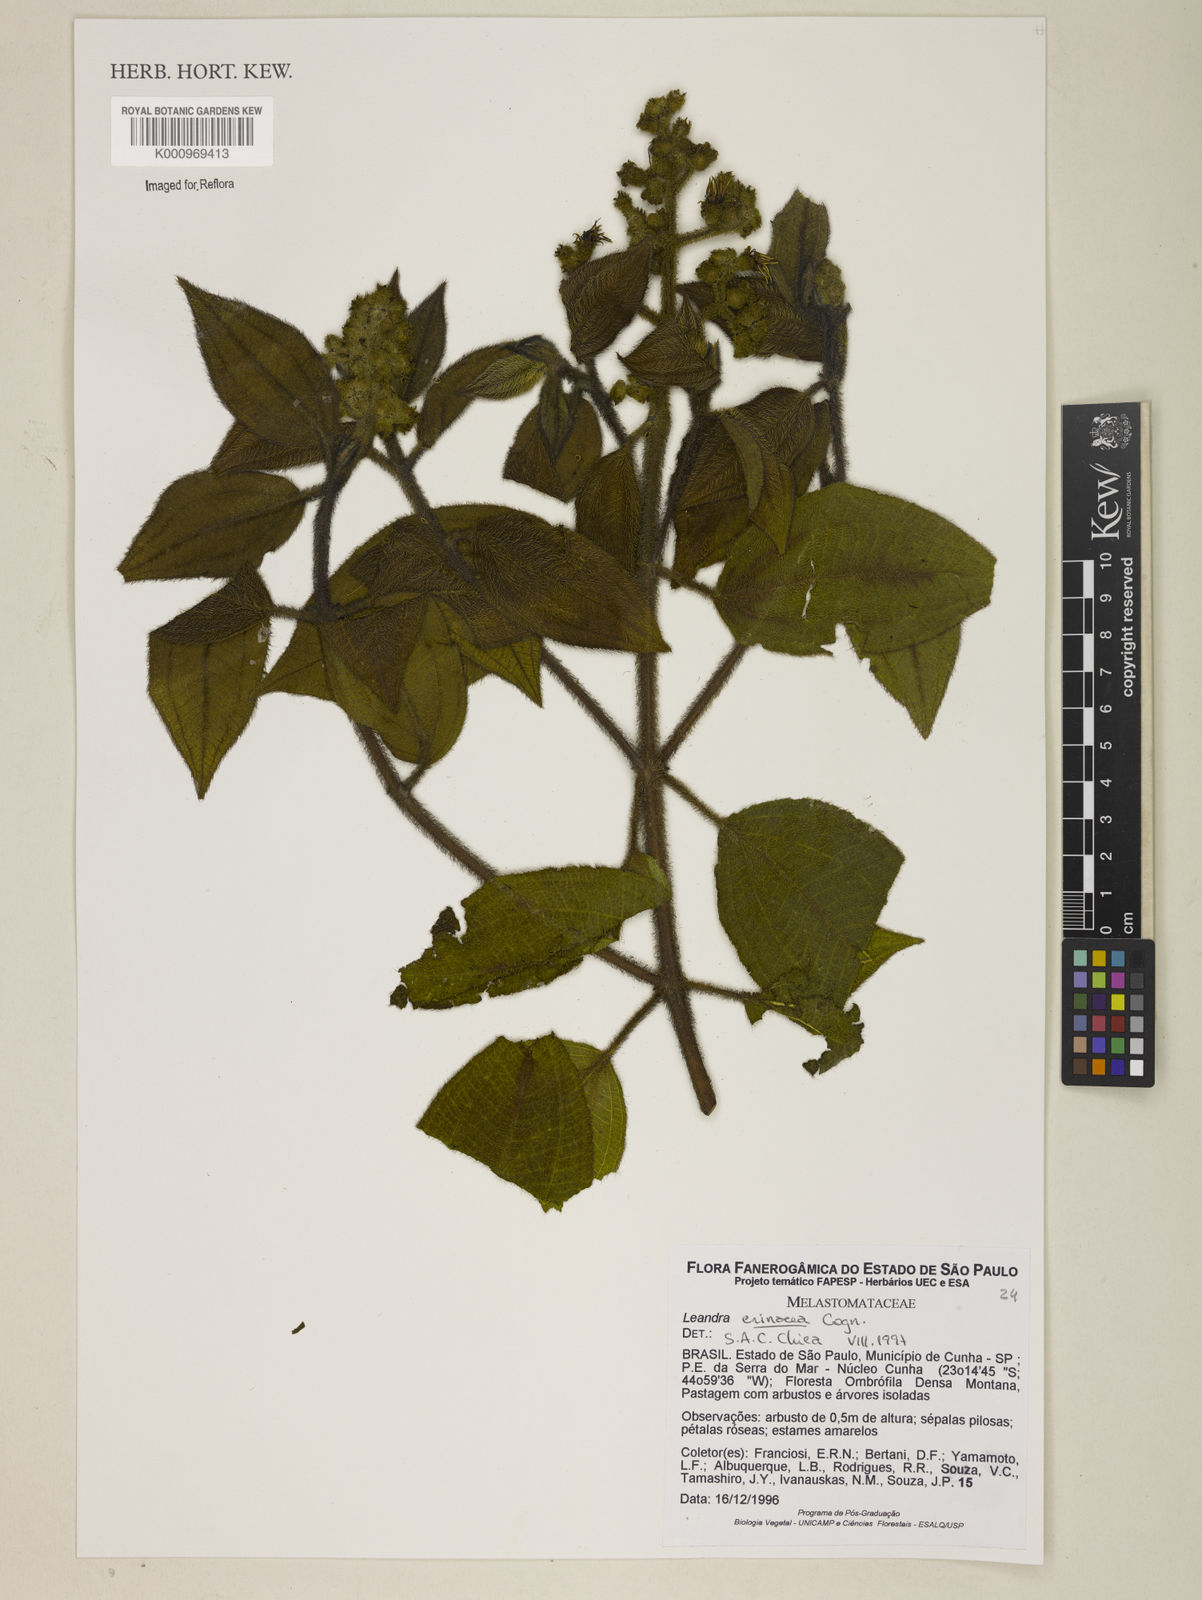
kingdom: Plantae
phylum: Tracheophyta
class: Magnoliopsida
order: Myrtales
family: Melastomataceae
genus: Miconia
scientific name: Miconia xanthocoma
